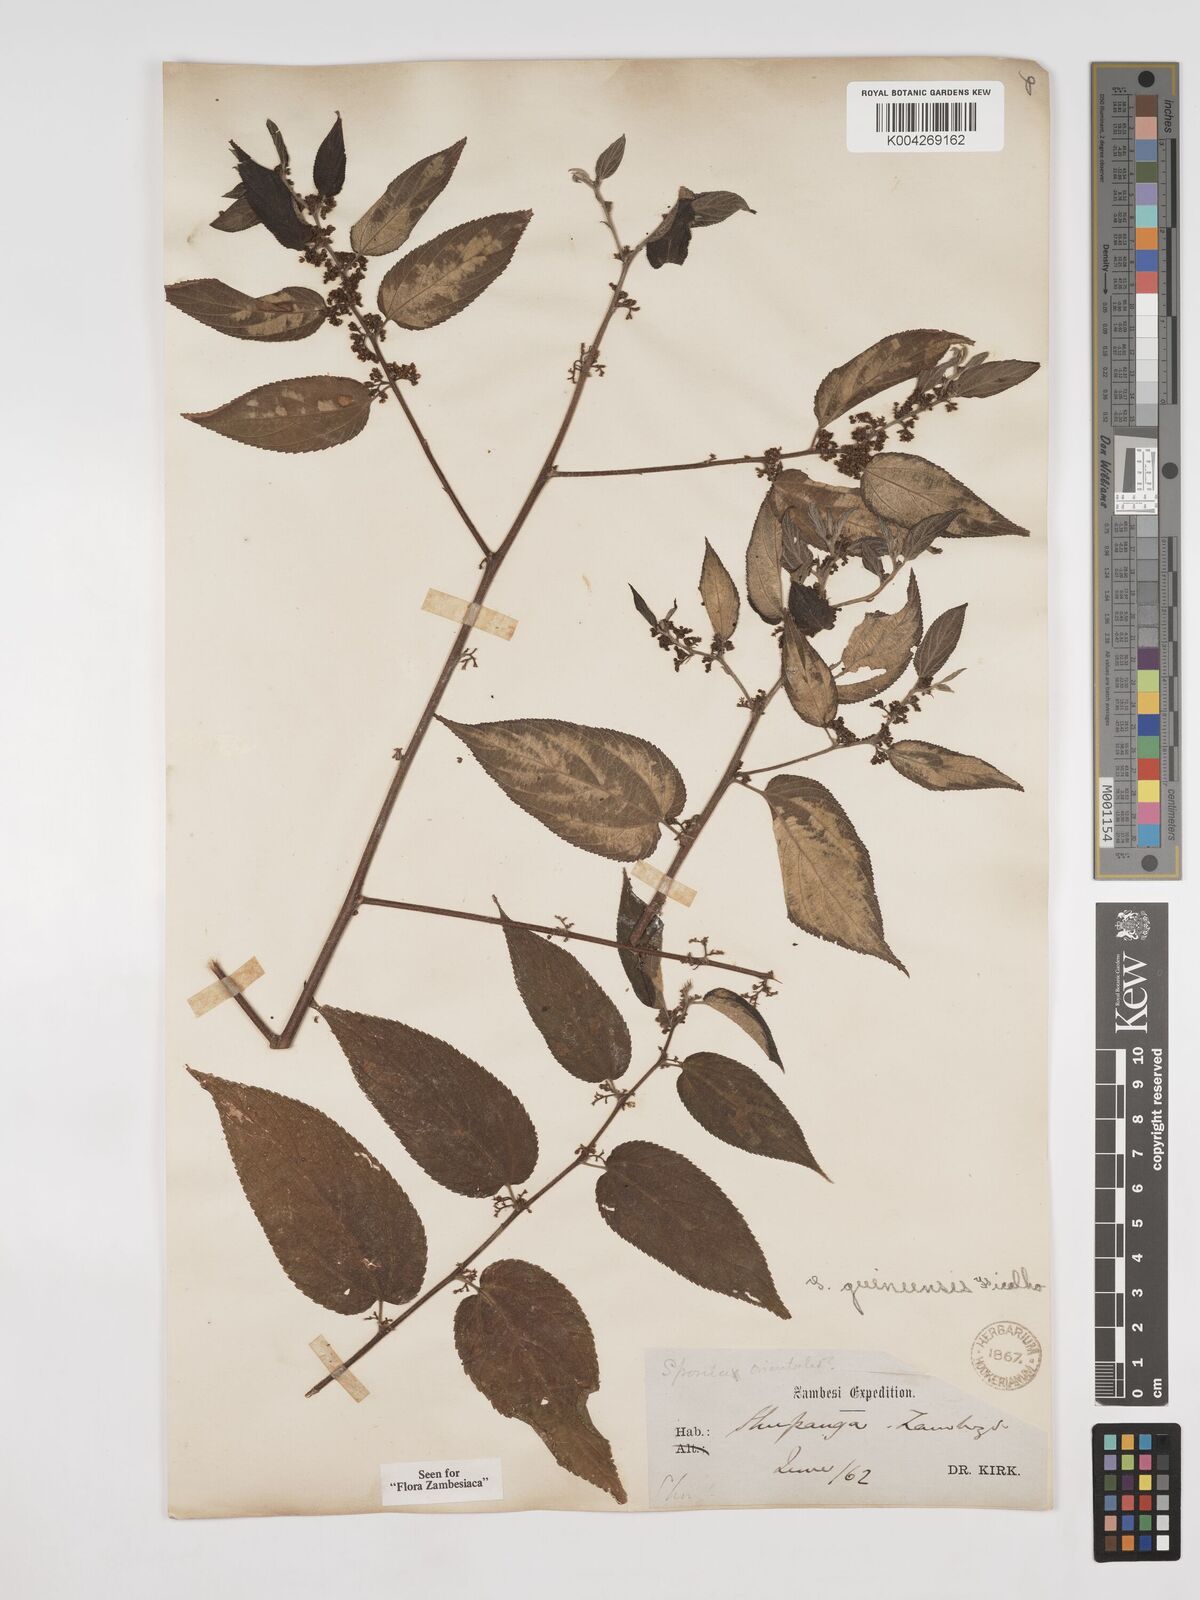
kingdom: Plantae
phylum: Tracheophyta
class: Magnoliopsida
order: Rosales
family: Cannabaceae
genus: Trema
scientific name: Trema orientale
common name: Indian charcoal tree
